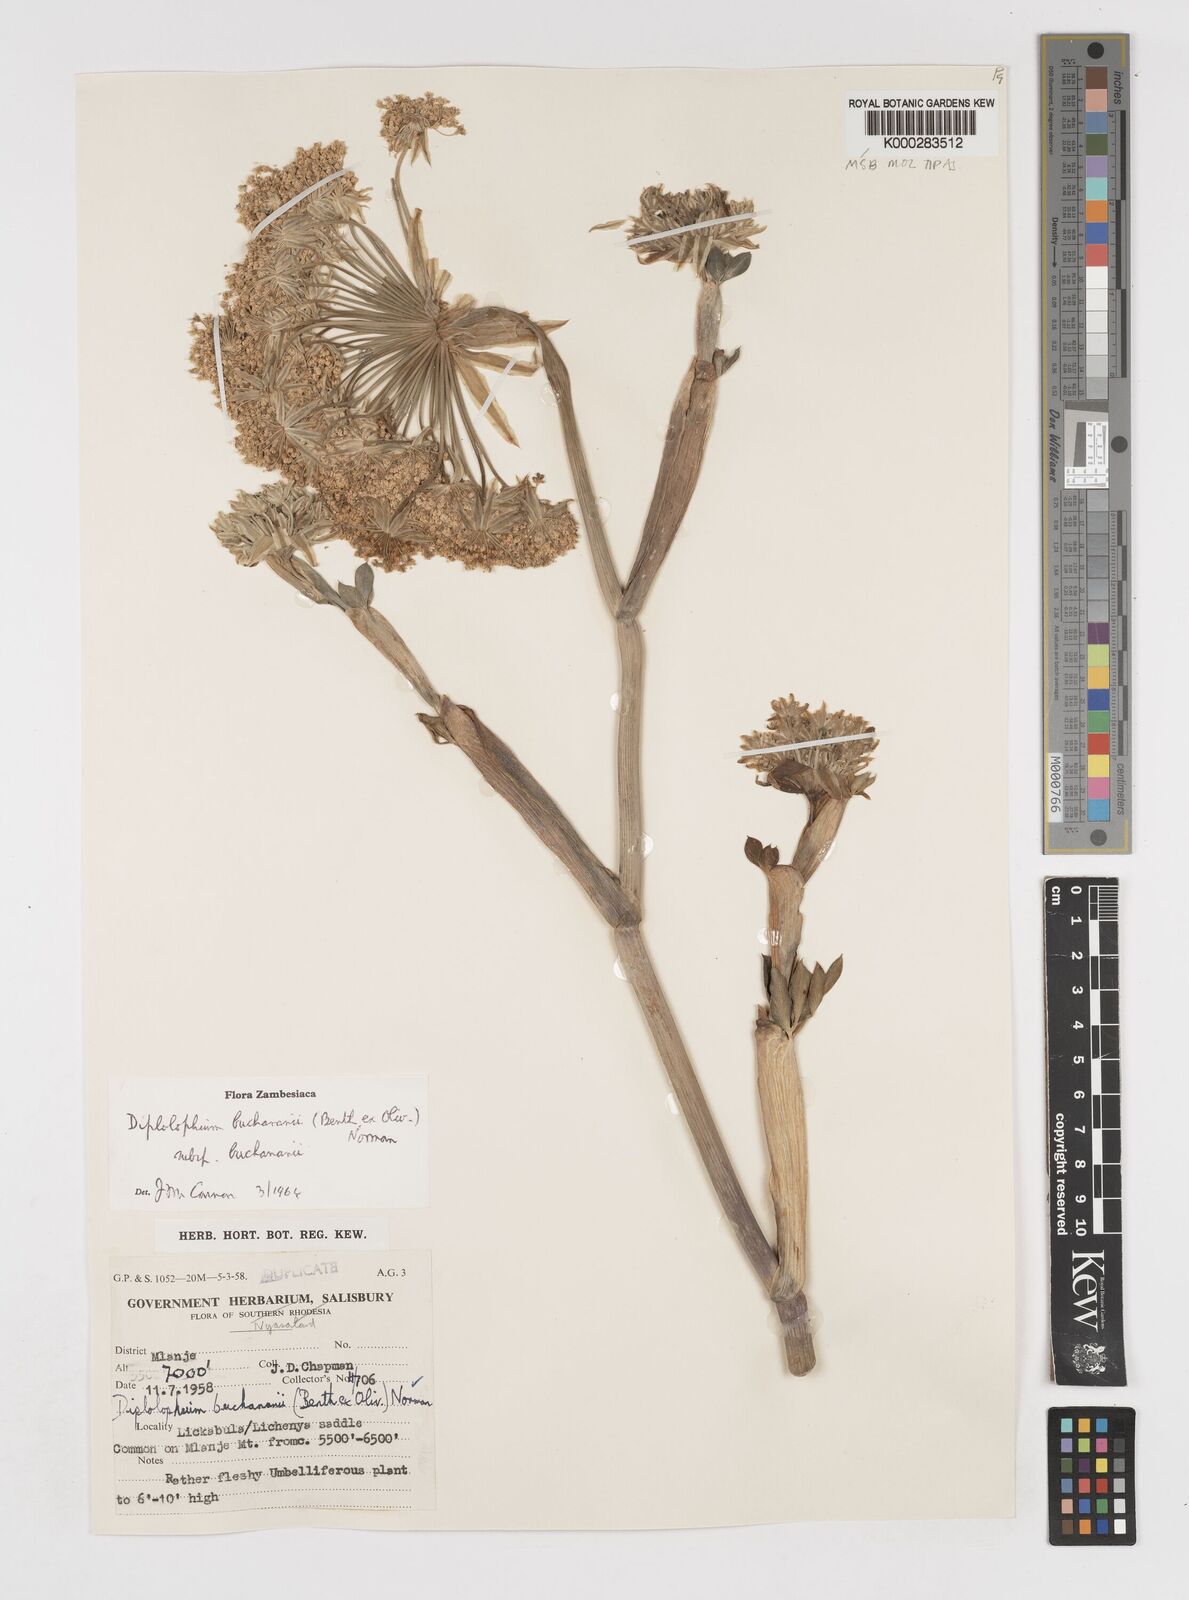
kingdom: Plantae
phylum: Tracheophyta
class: Magnoliopsida
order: Apiales
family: Apiaceae
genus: Diplolophium
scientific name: Diplolophium buchananii
